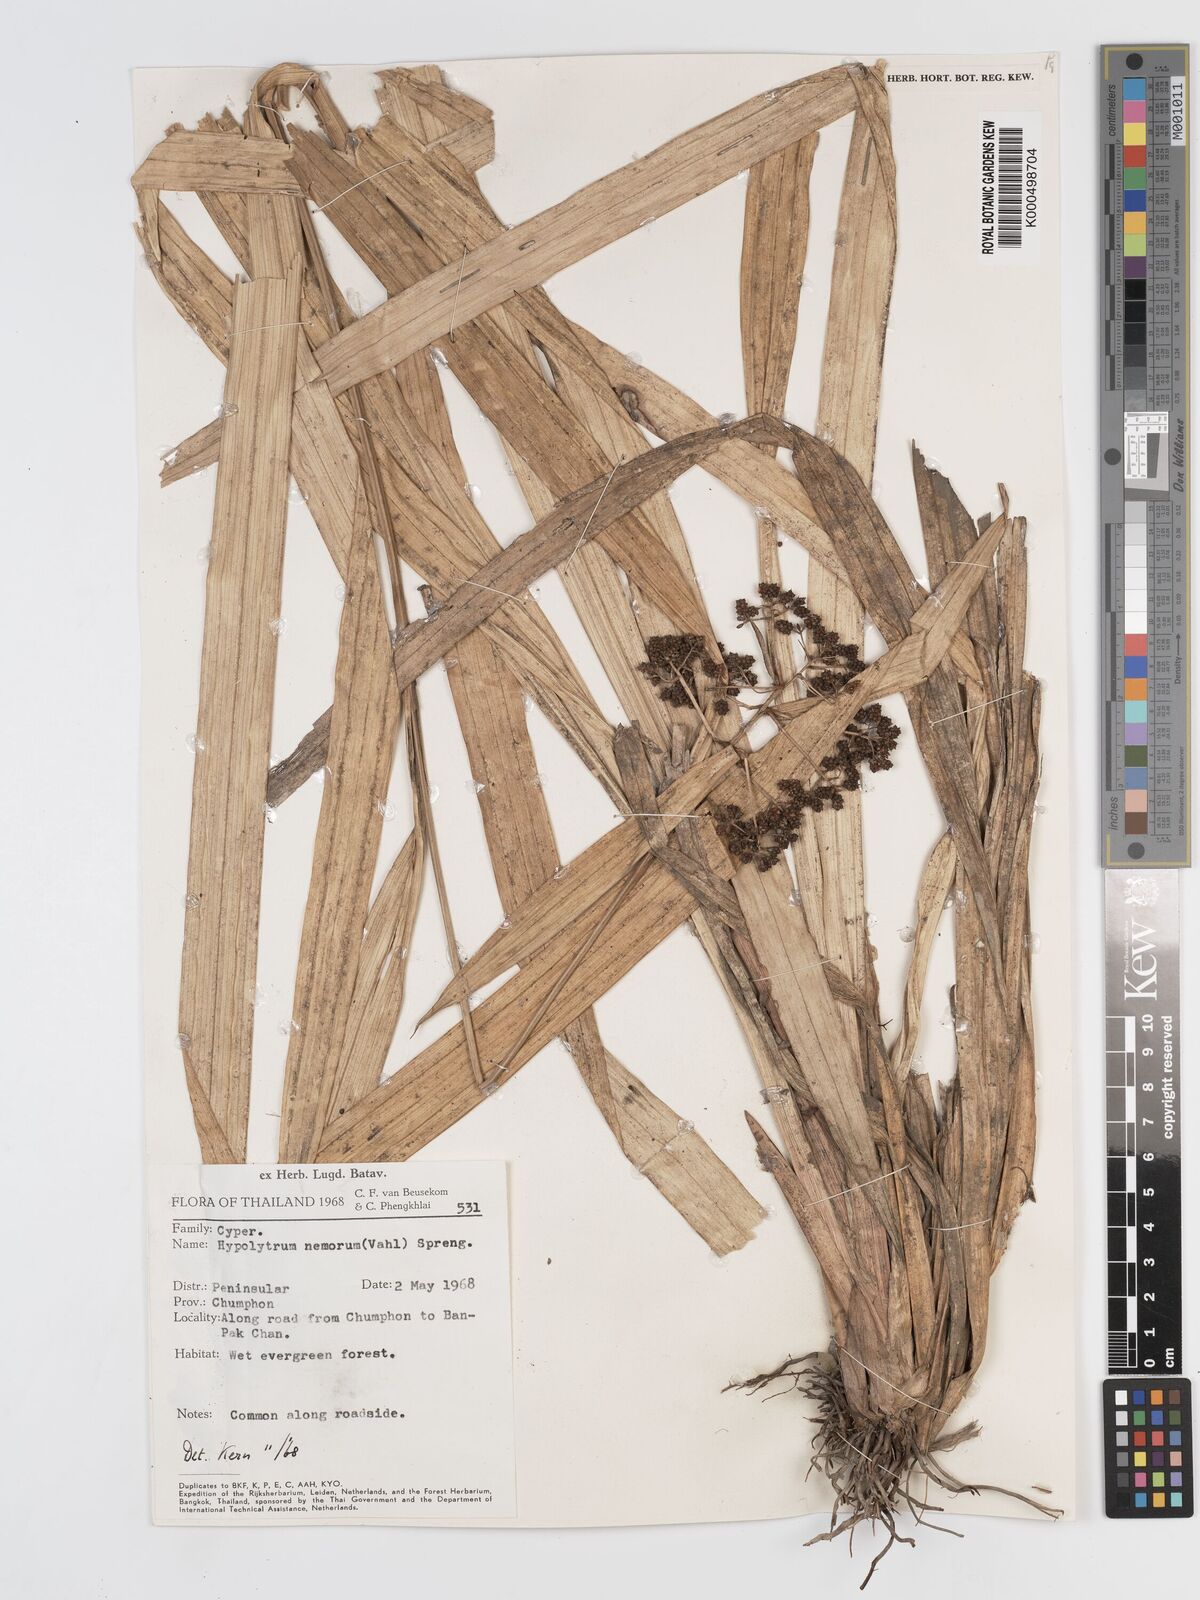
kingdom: Plantae
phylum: Tracheophyta
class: Liliopsida
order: Poales
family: Cyperaceae
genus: Hypolytrum
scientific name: Hypolytrum nemorum
